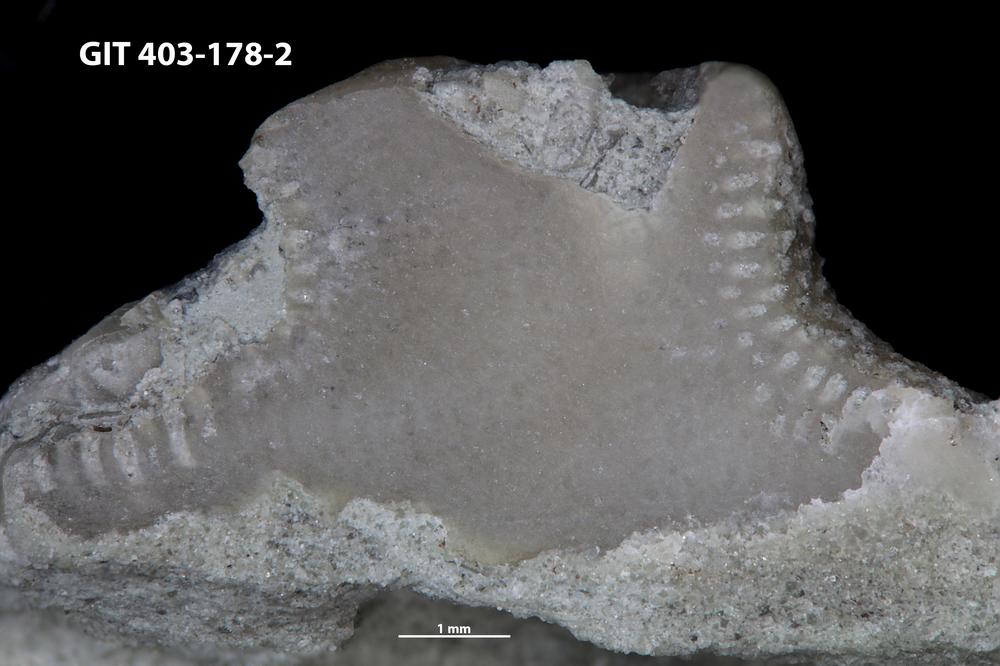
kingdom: Animalia
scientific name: Animalia
